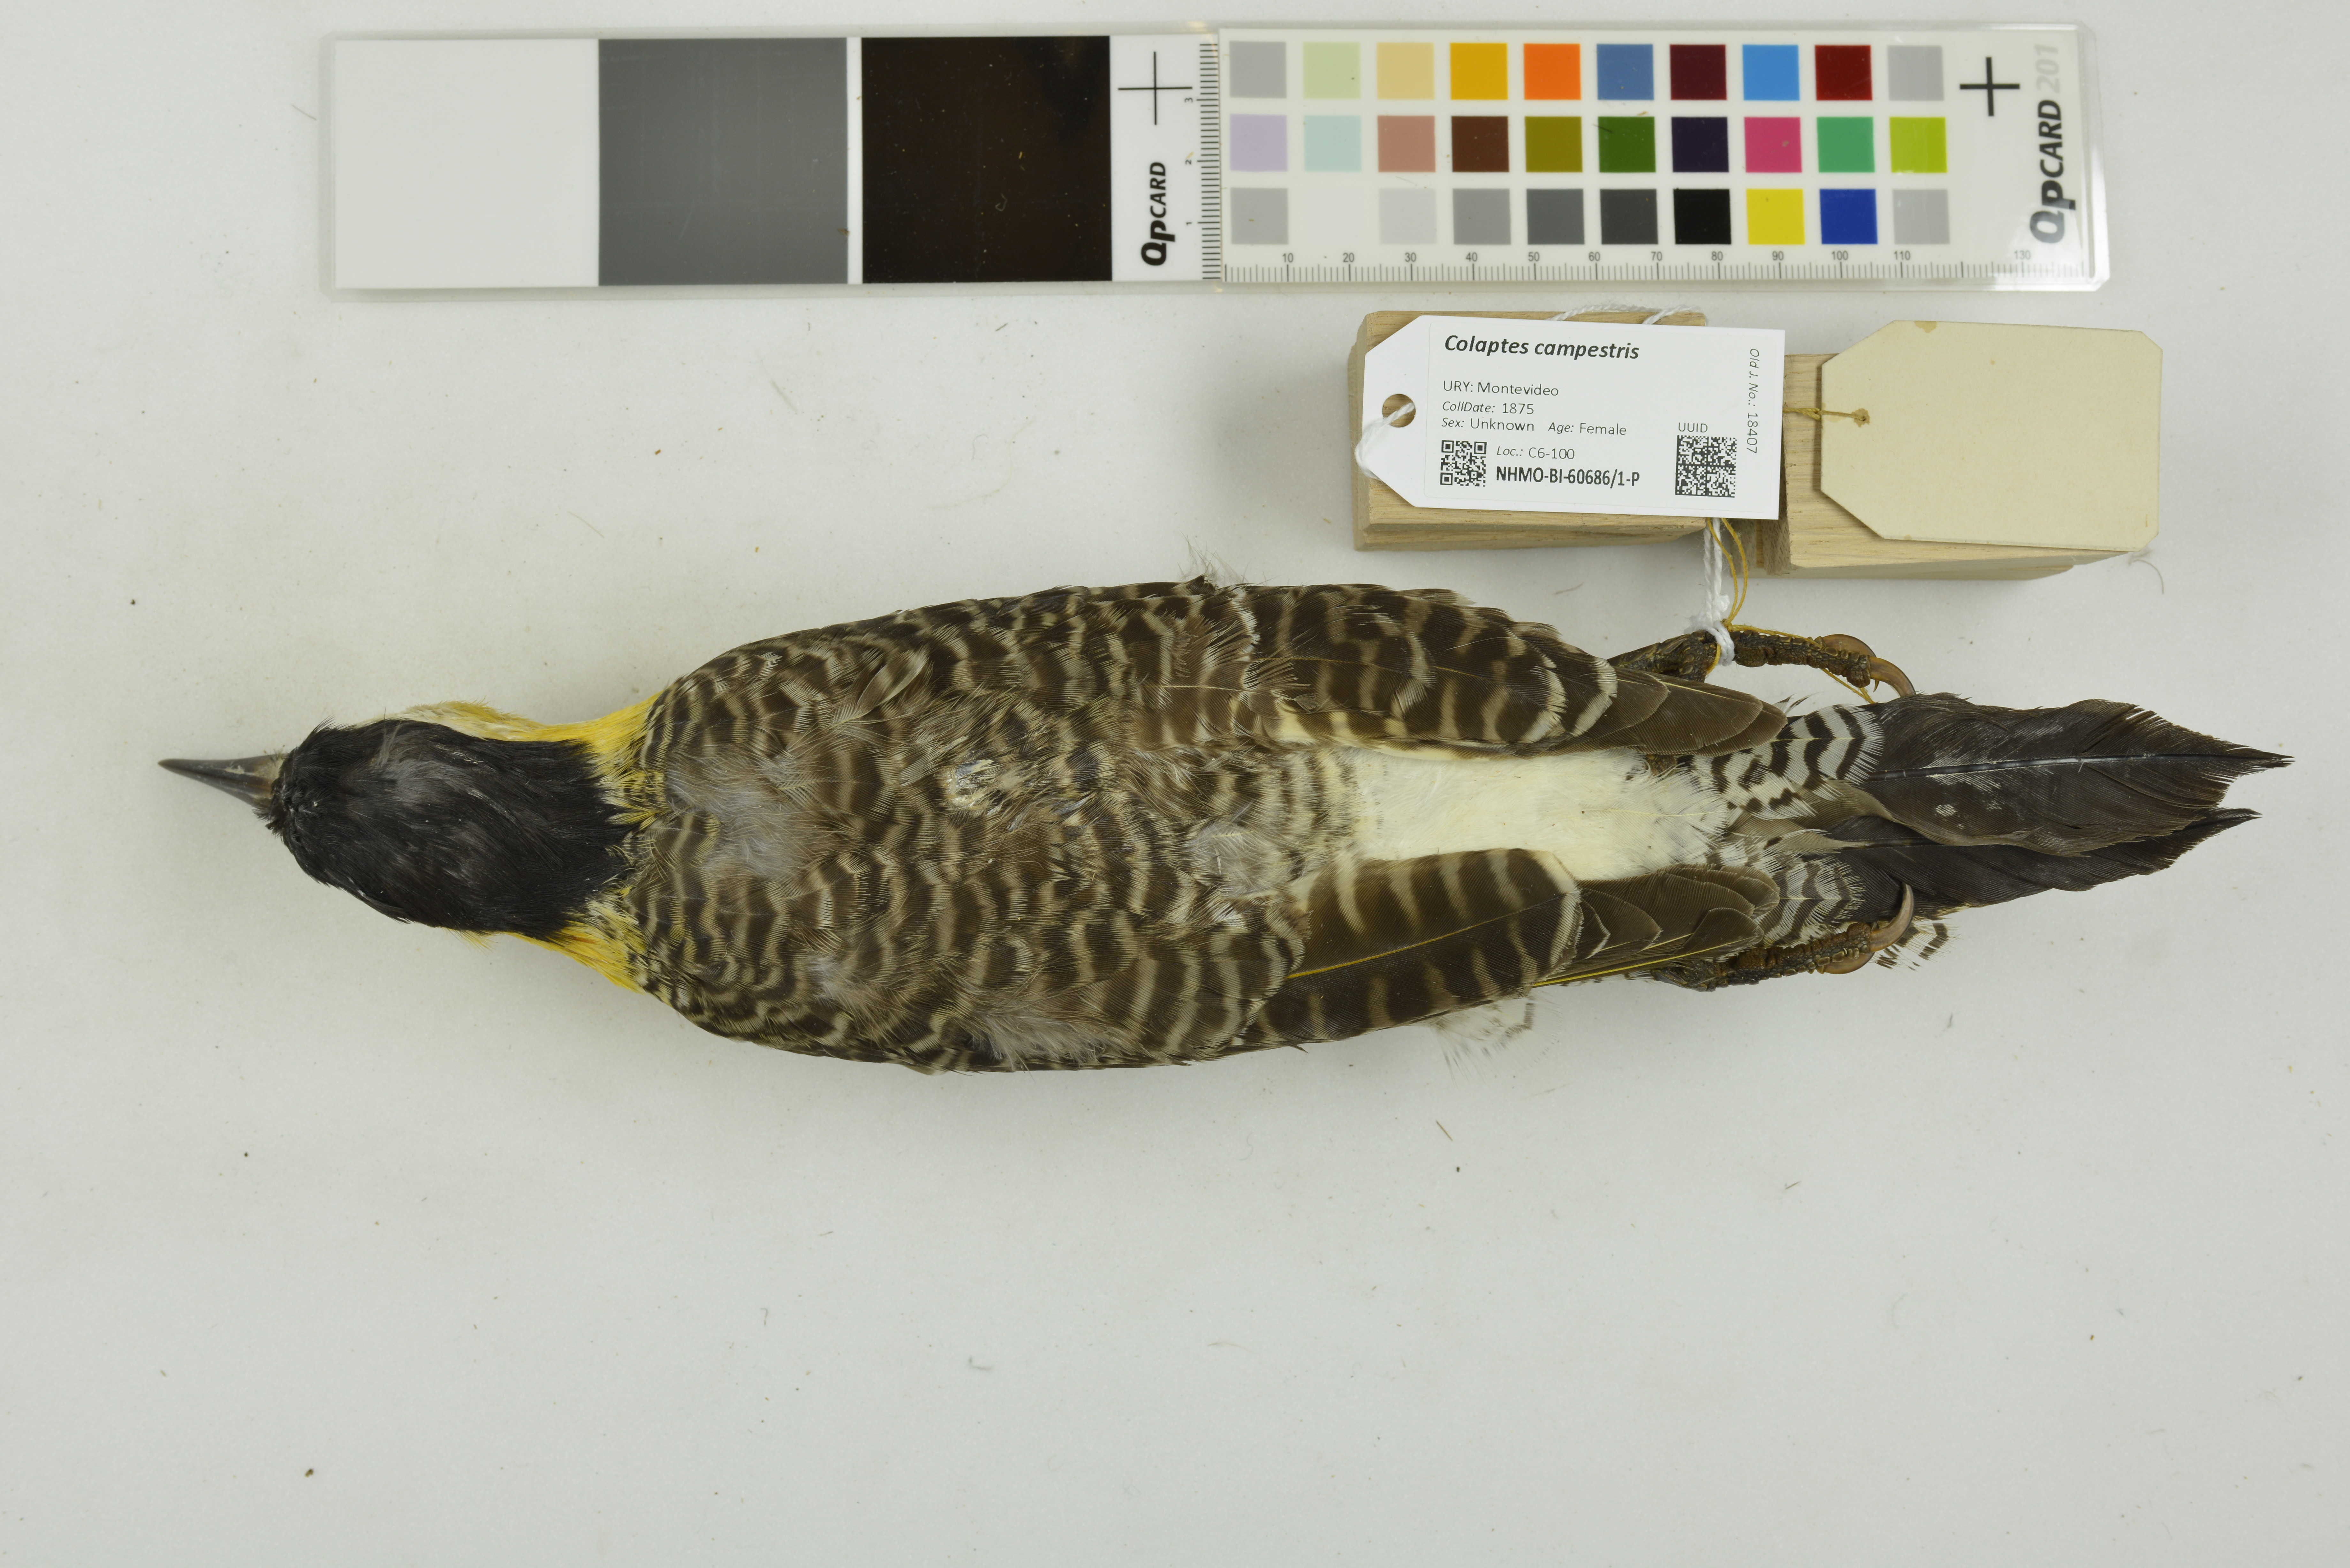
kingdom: Animalia
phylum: Chordata
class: Aves
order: Piciformes
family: Picidae
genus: Colaptes
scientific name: Colaptes campestris
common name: Campo flicker
